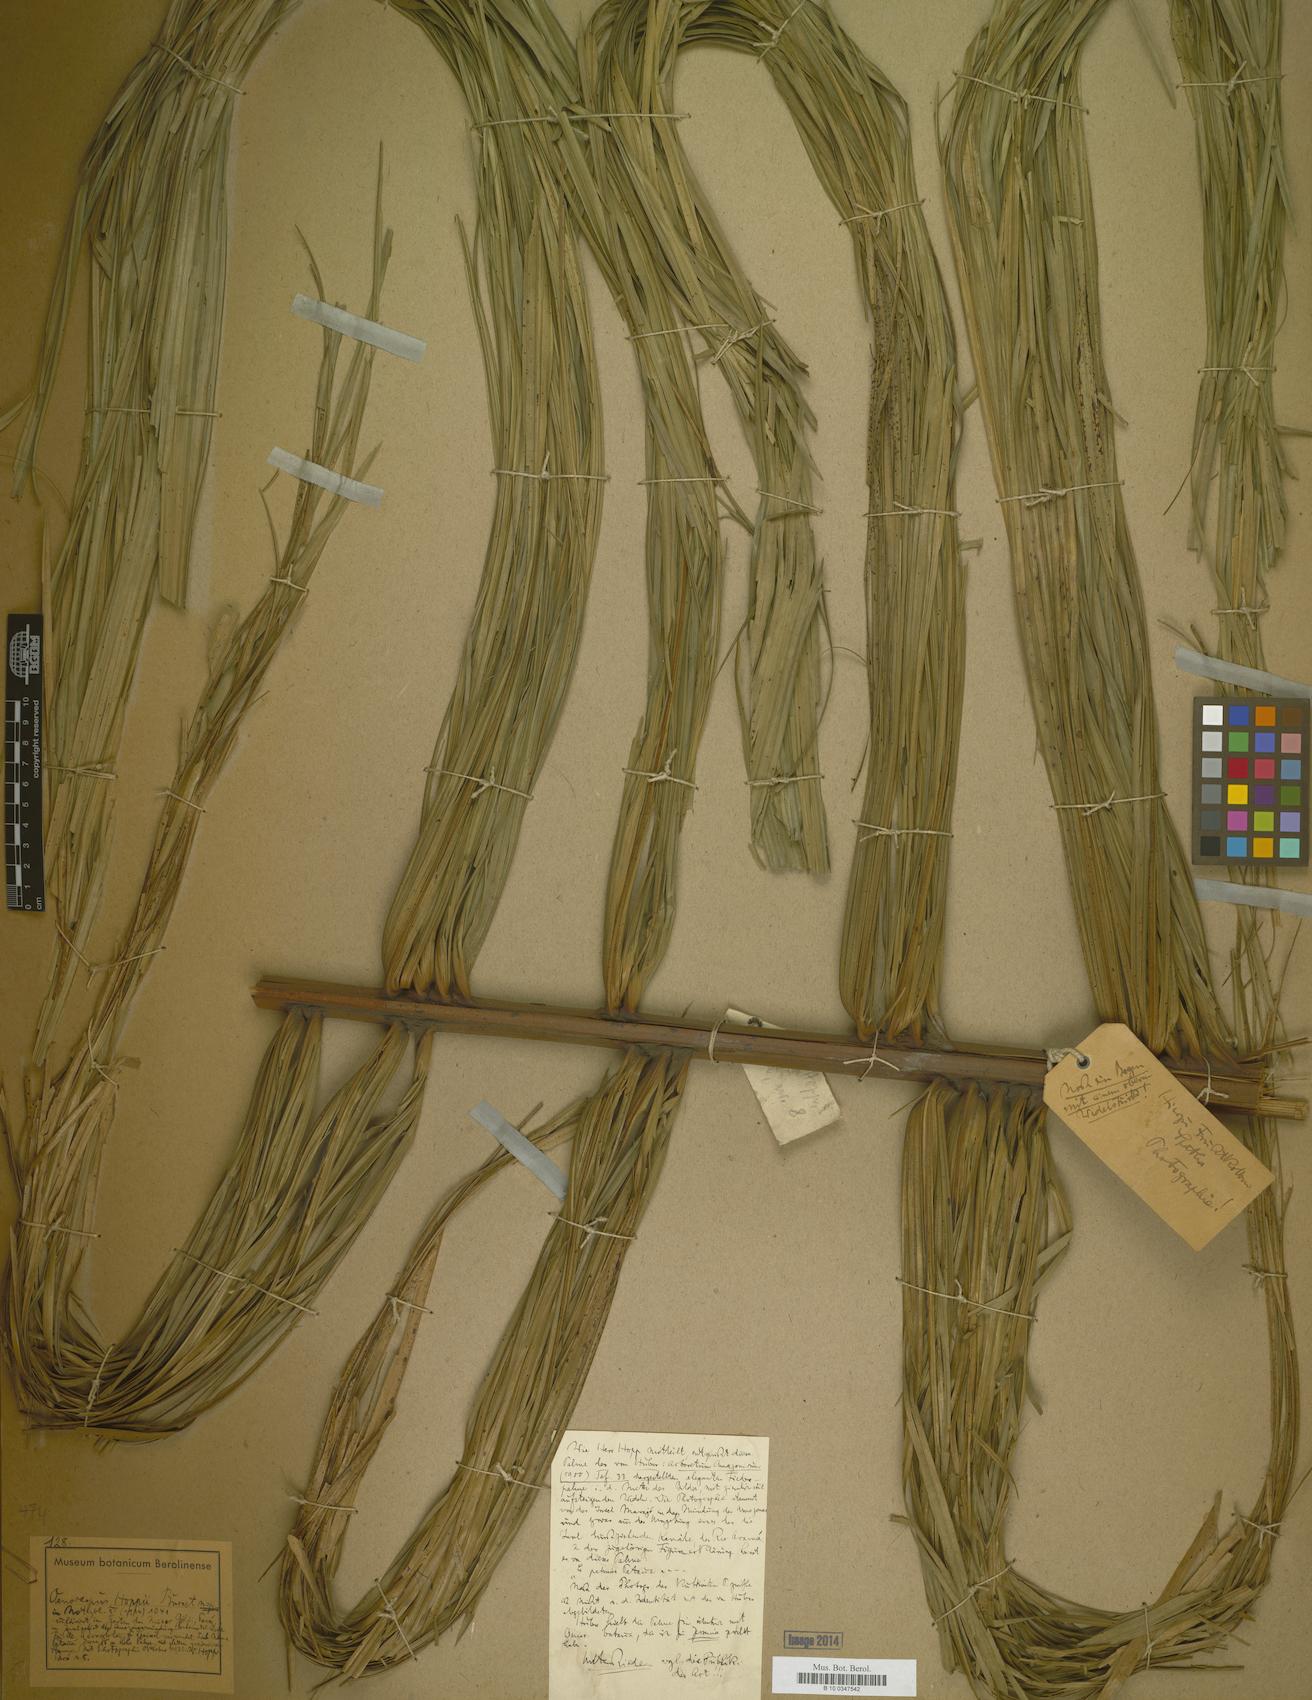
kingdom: Plantae
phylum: Tracheophyta
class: Liliopsida
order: Arecales
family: Arecaceae
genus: Oenocarpus
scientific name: Oenocarpus bacaba
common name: Bacaba palm
